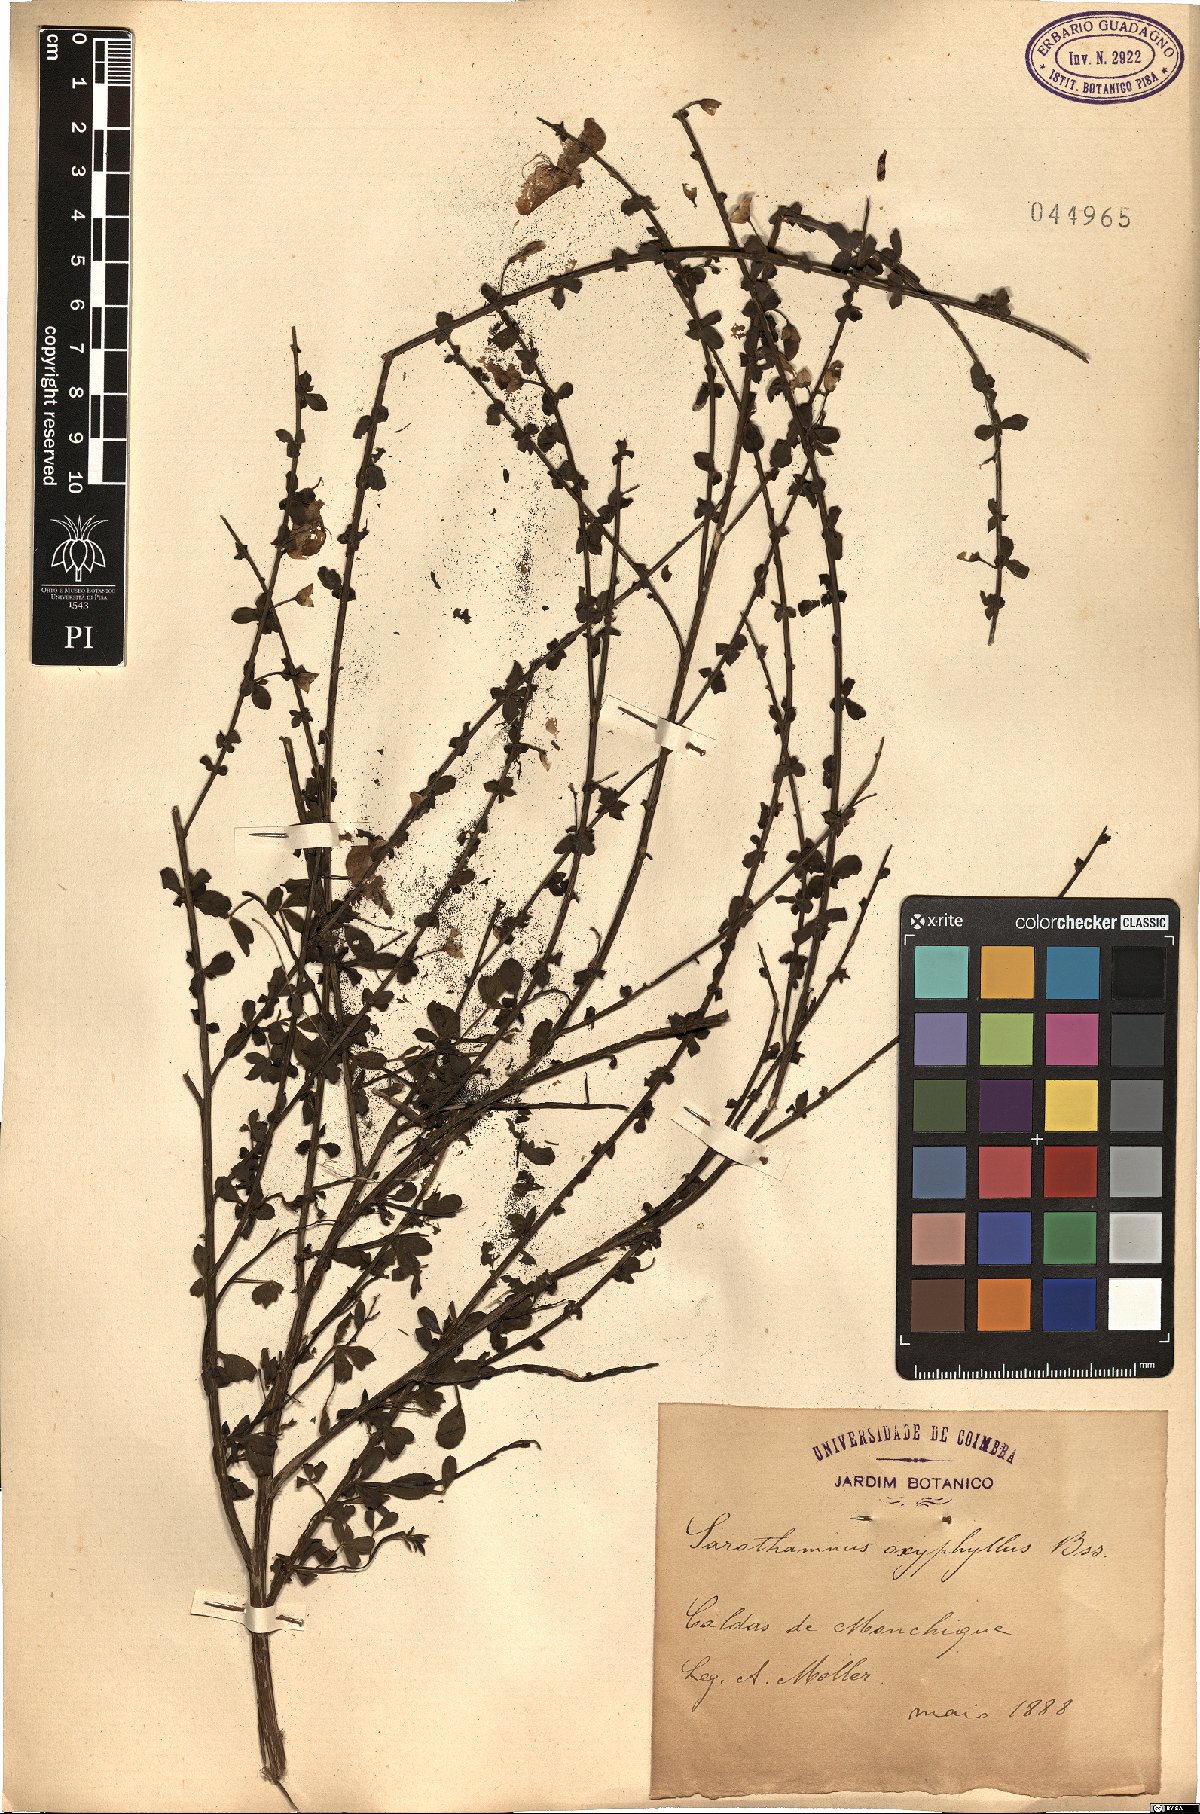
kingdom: Plantae
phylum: Tracheophyta
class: Magnoliopsida
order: Fabales
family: Fabaceae
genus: Cytisus
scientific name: Cytisus scoparius
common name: Scotch broom
